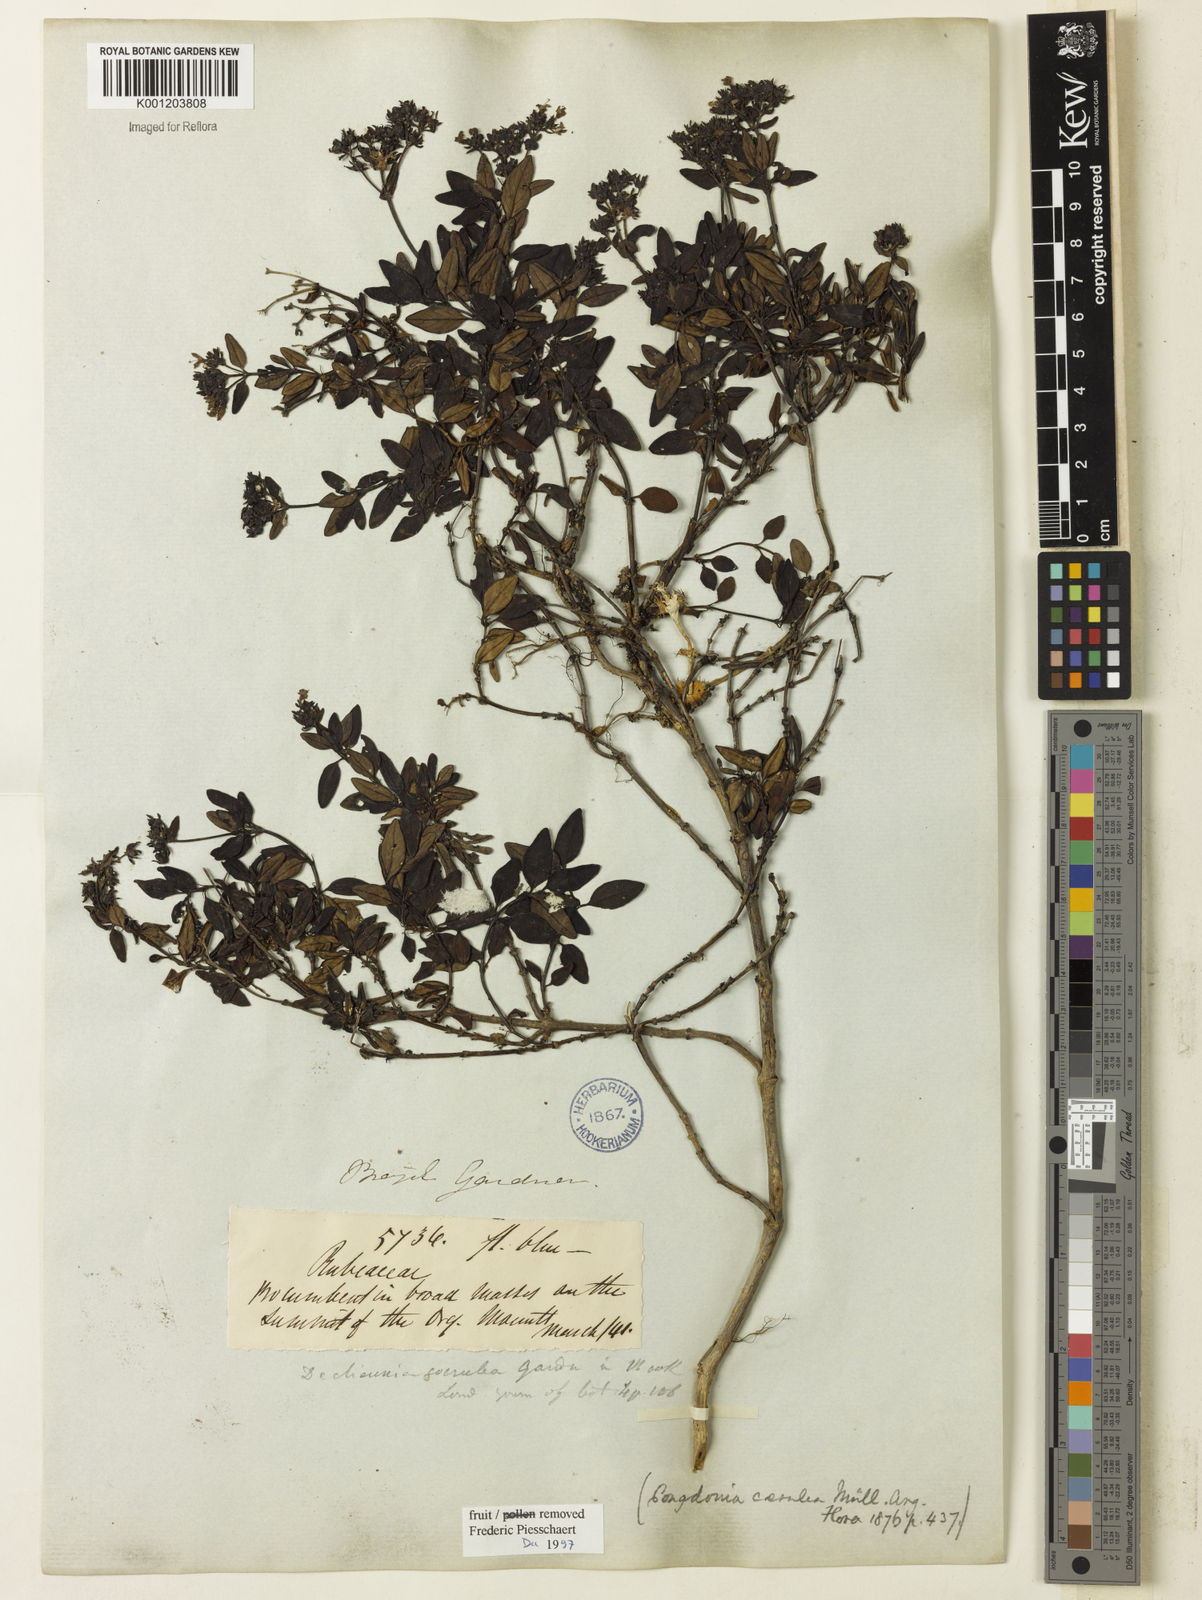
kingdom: Plantae
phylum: Tracheophyta
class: Magnoliopsida
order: Gentianales
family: Rubiaceae
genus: Declieuxia
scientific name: Declieuxia coerulea
